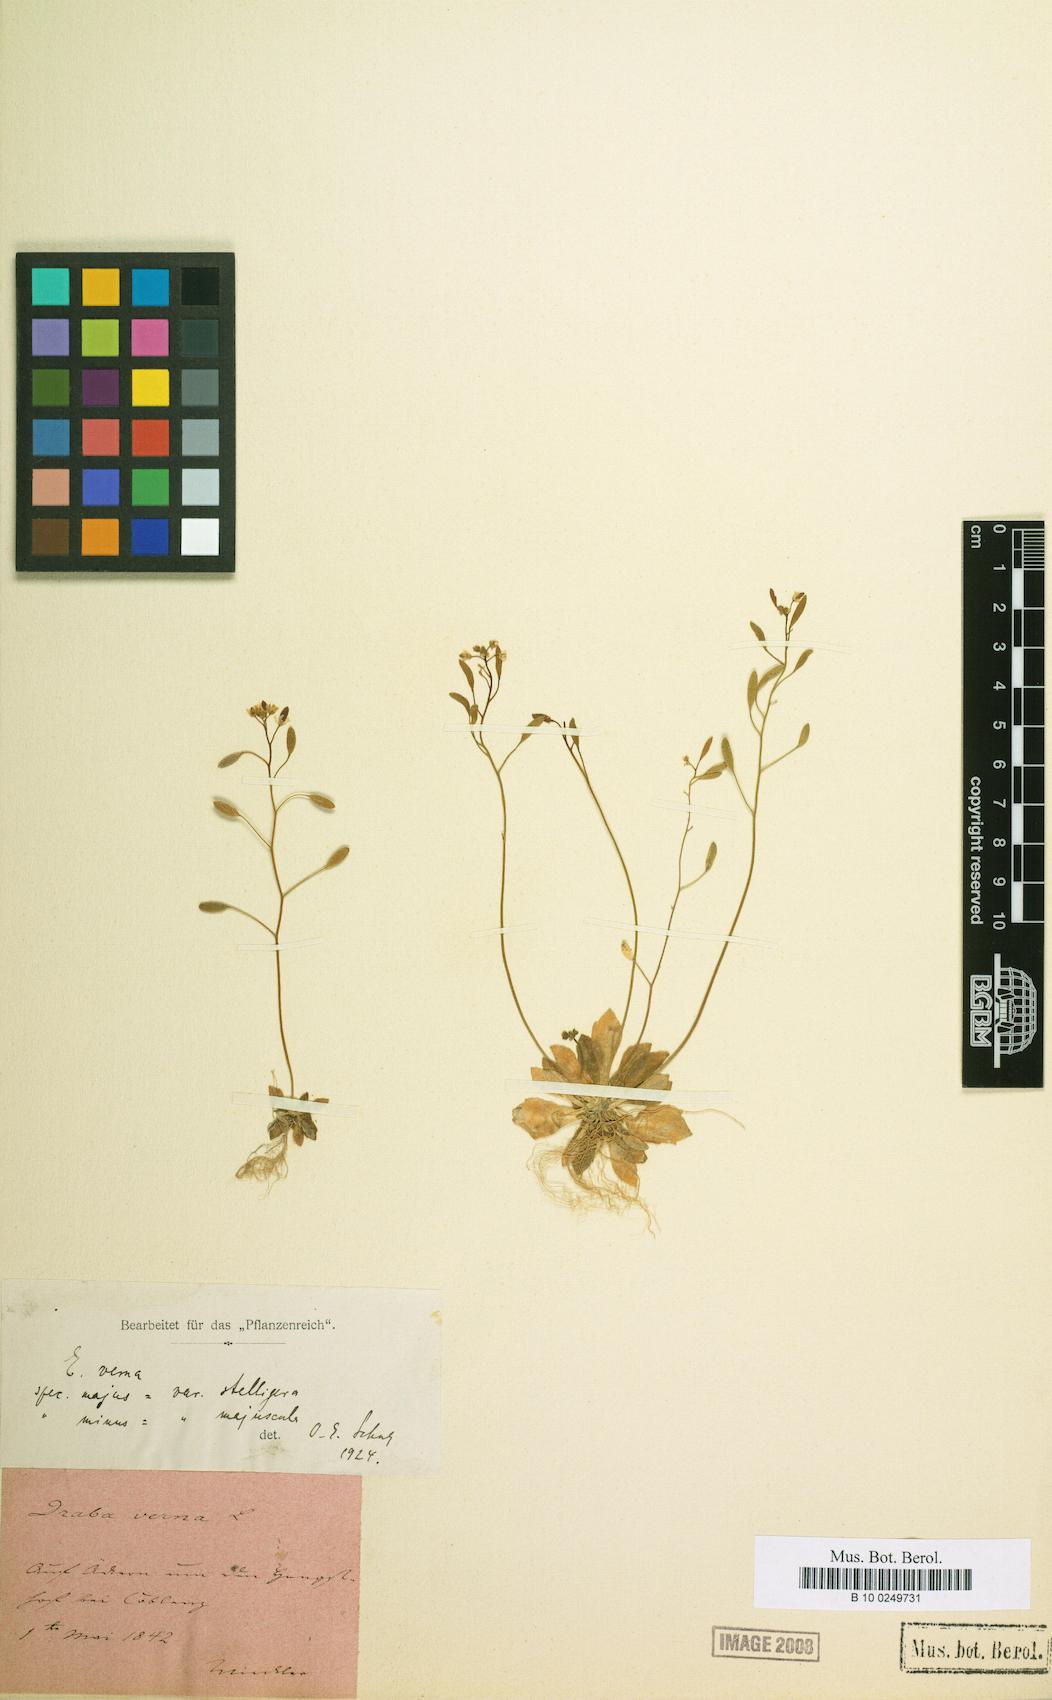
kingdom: Plantae
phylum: Tracheophyta
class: Magnoliopsida
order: Brassicales
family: Brassicaceae
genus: Draba
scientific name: Draba verna
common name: Spring draba
